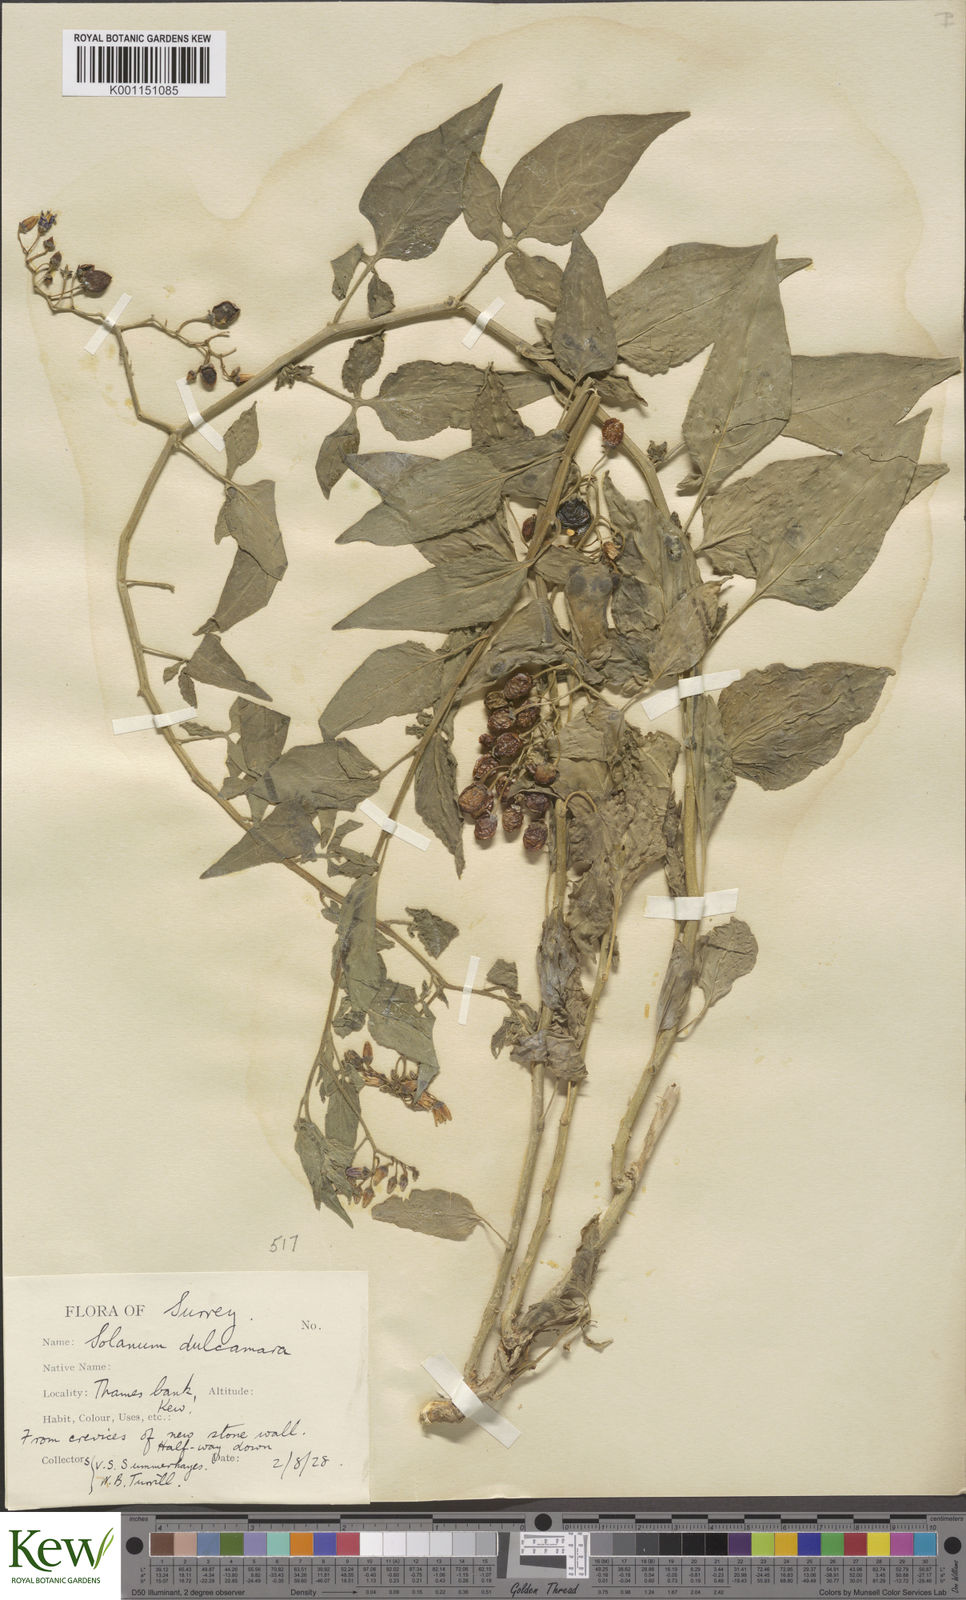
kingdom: Plantae
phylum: Tracheophyta
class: Magnoliopsida
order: Solanales
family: Solanaceae
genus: Solanum
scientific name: Solanum dulcamara
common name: Climbing nightshade
